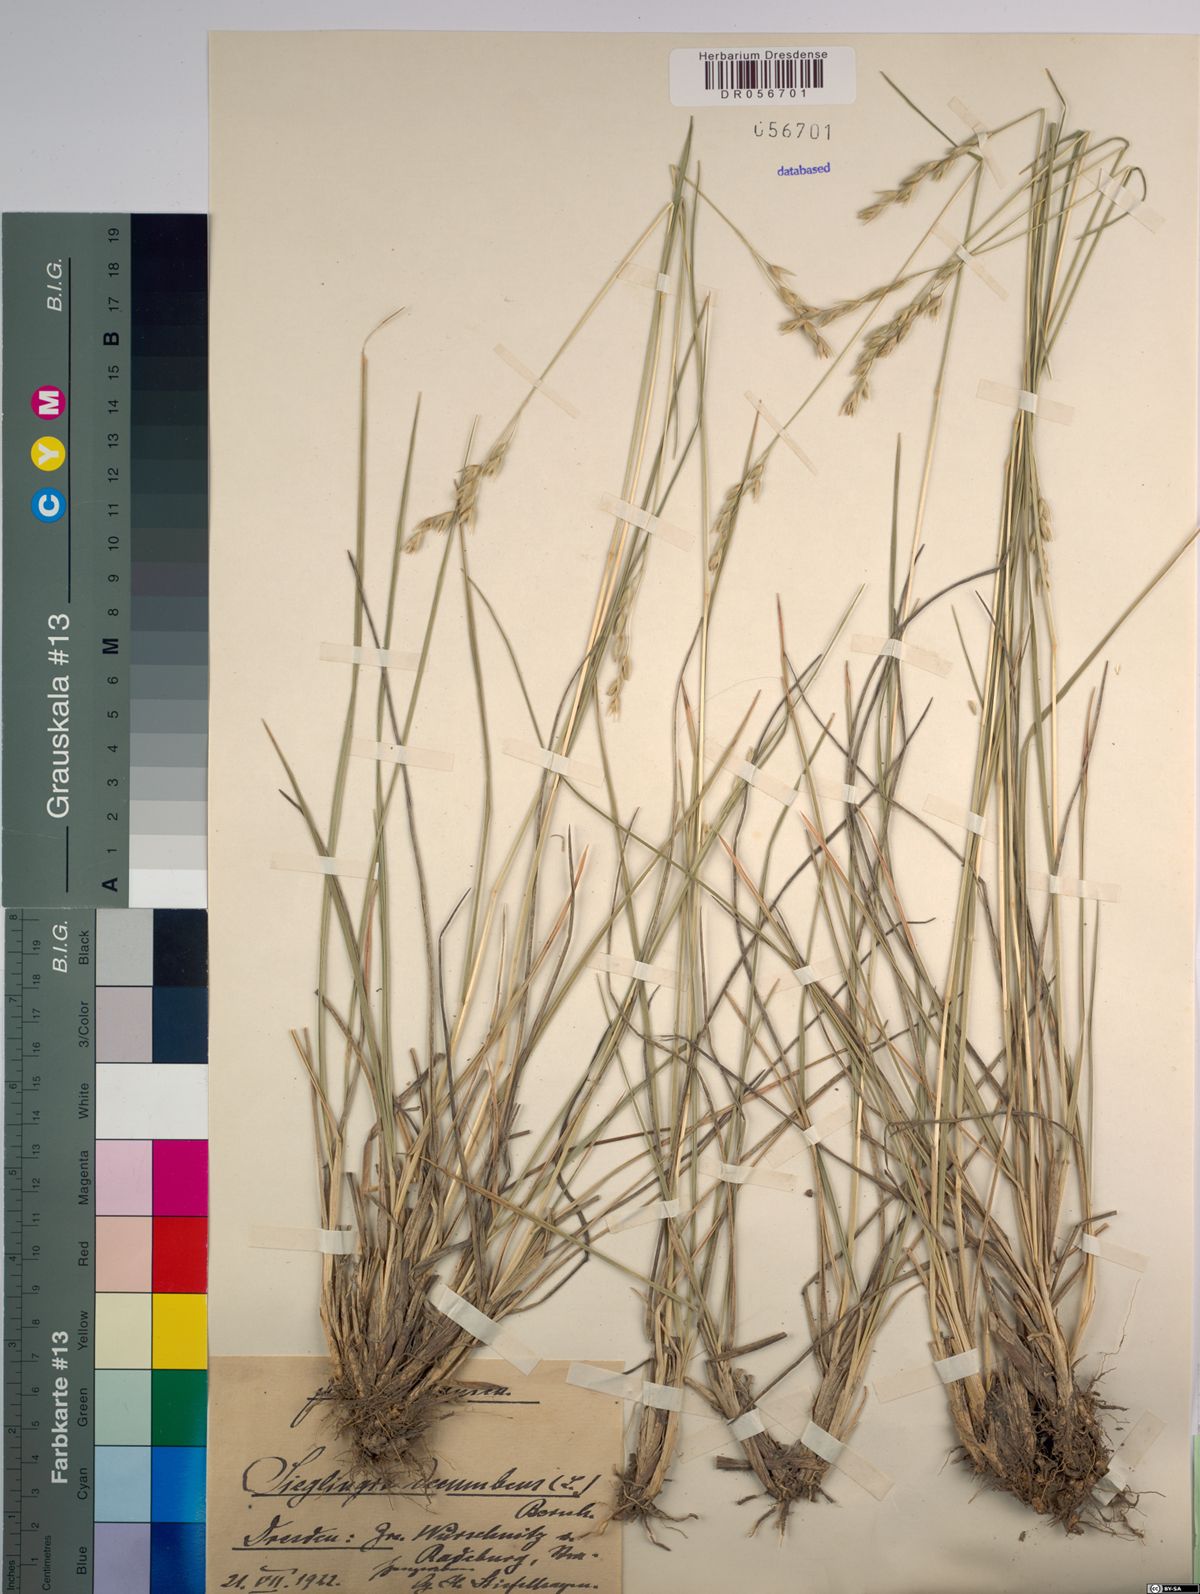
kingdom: Plantae
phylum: Tracheophyta
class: Liliopsida
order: Poales
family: Poaceae
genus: Danthonia
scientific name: Danthonia decumbens
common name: Common heathgrass
